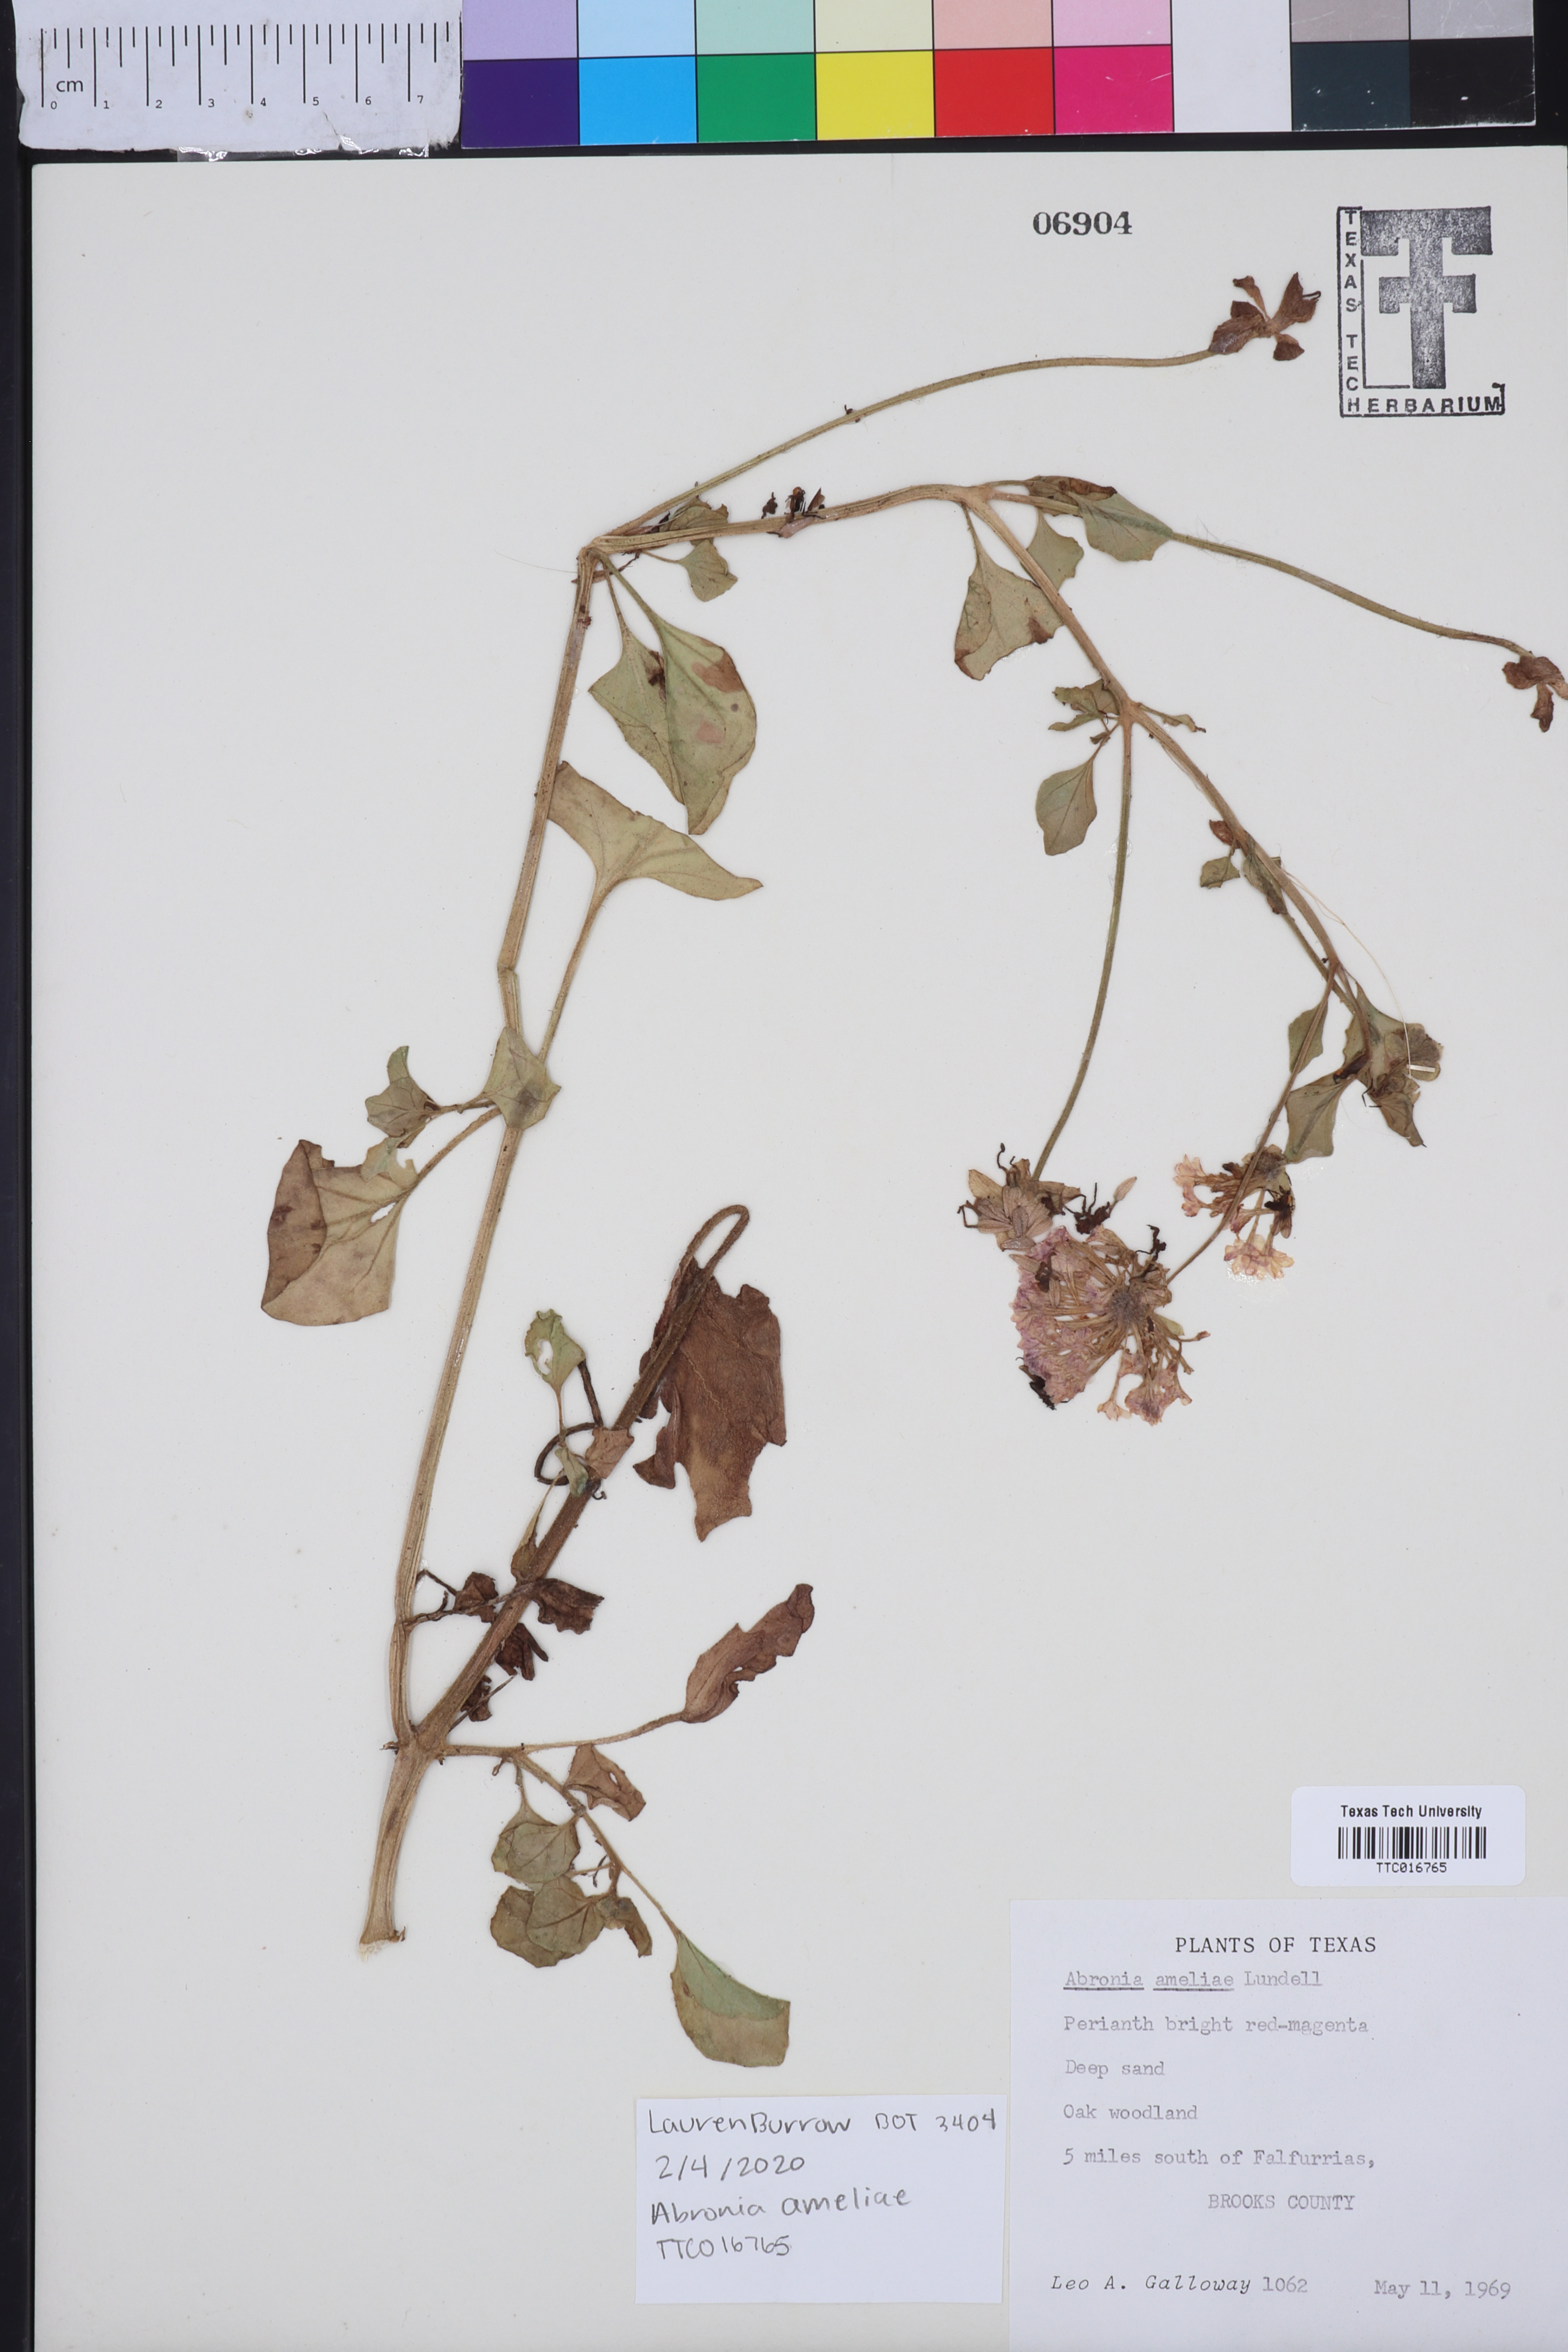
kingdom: Plantae
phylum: Tracheophyta
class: Magnoliopsida
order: Caryophyllales
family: Nyctaginaceae
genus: Abronia
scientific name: Abronia ameliae
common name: Amelia's sand-verbena
